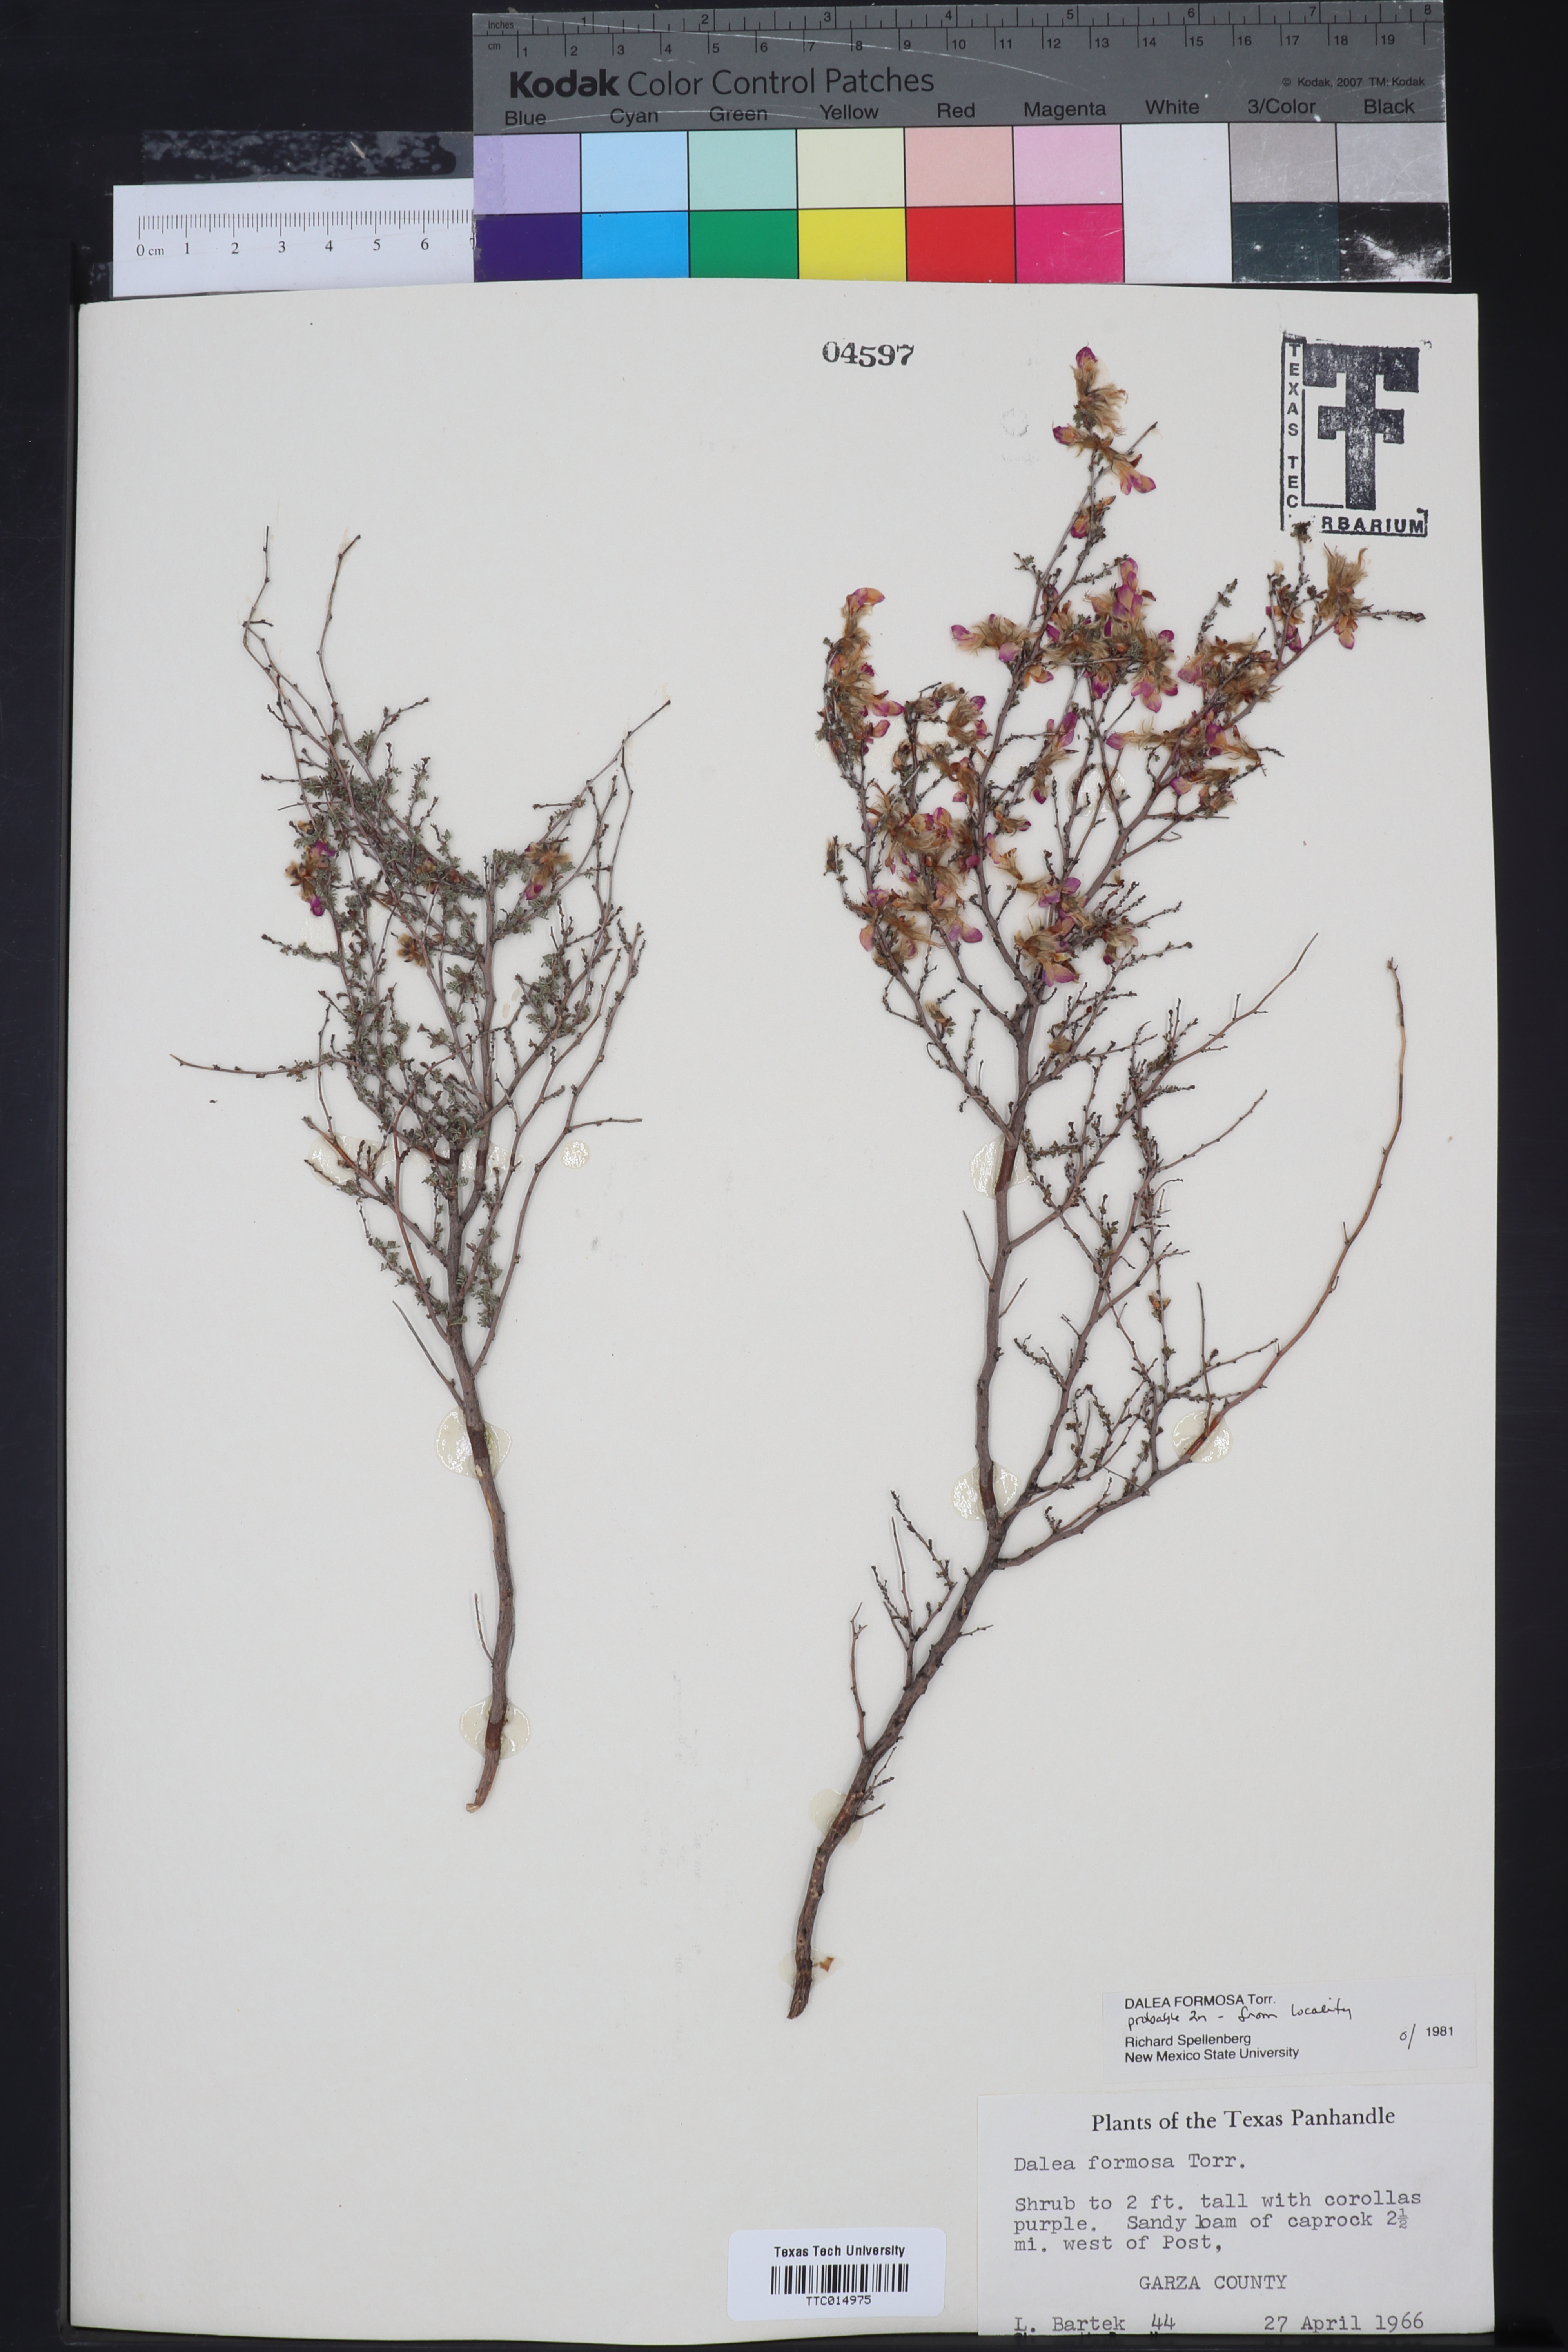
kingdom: Plantae
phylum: Tracheophyta
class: Magnoliopsida
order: Fabales
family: Fabaceae
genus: Dalea
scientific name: Dalea formosa
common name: Feather-plume dalea
